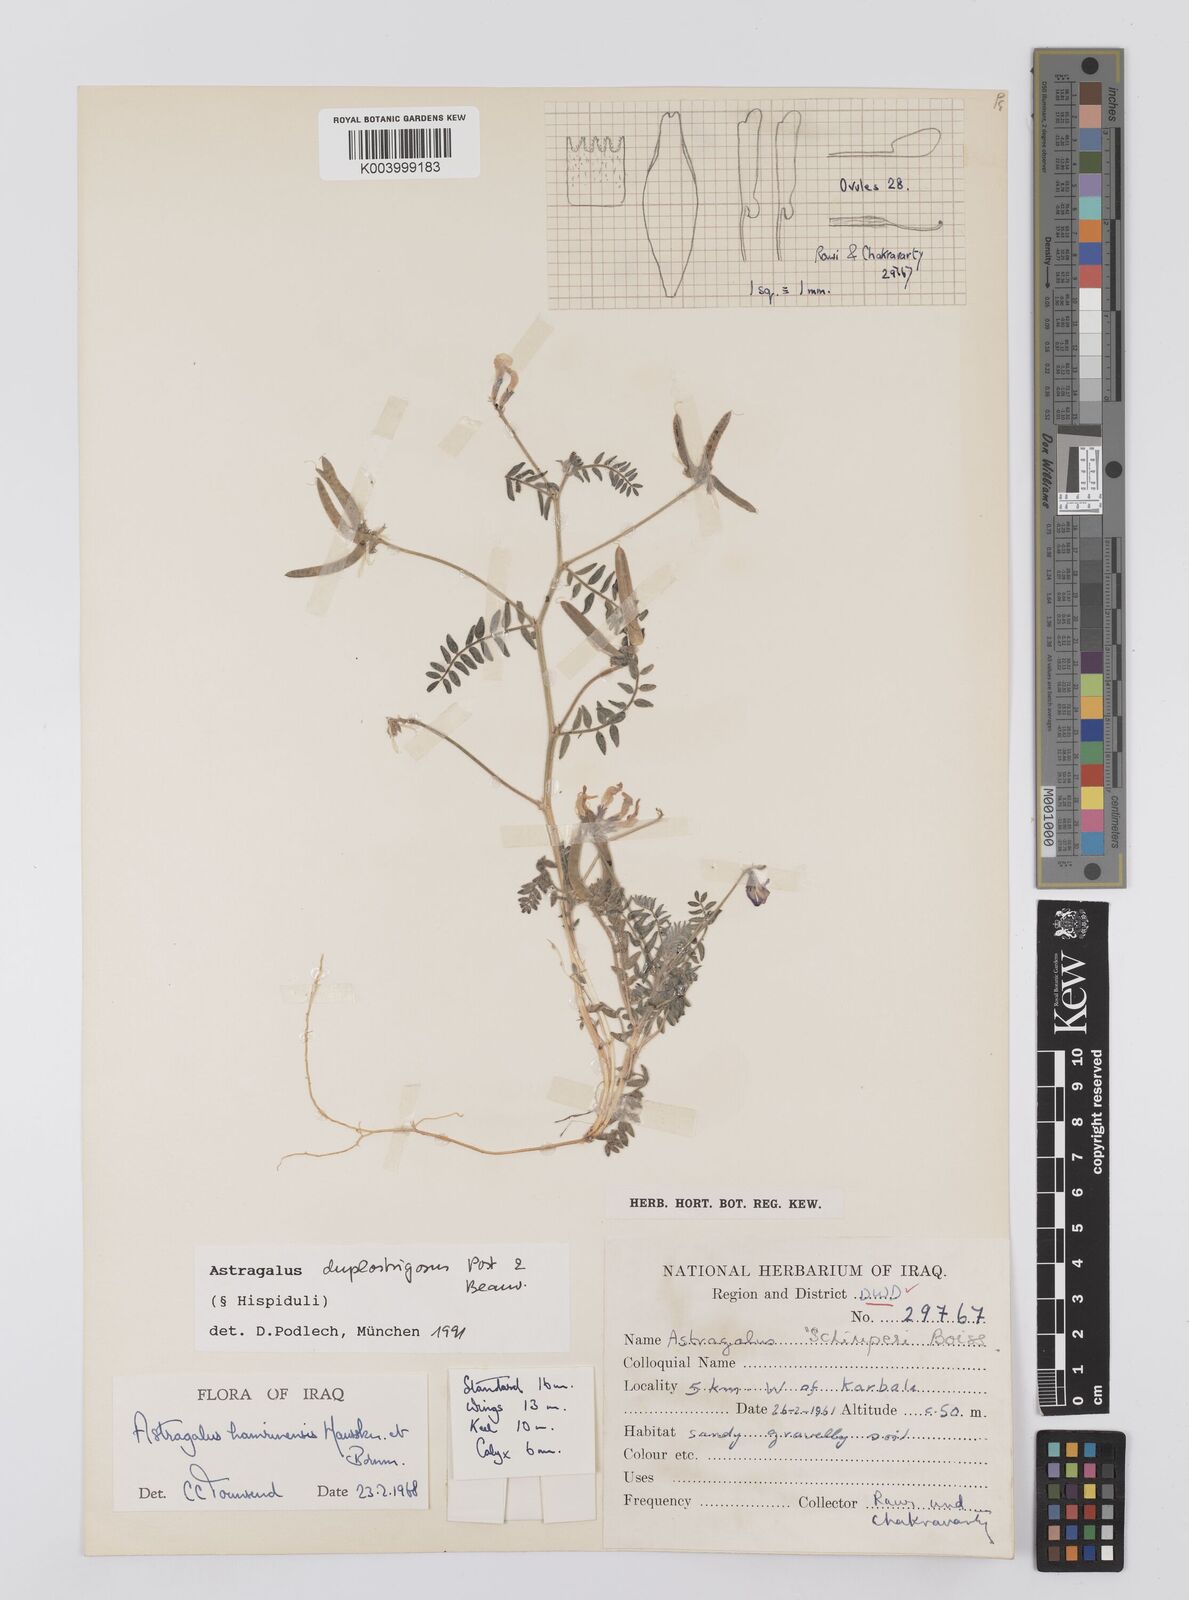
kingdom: Plantae
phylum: Tracheophyta
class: Magnoliopsida
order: Fabales
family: Fabaceae
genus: Astragalus
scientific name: Astragalus duplostrigosus
